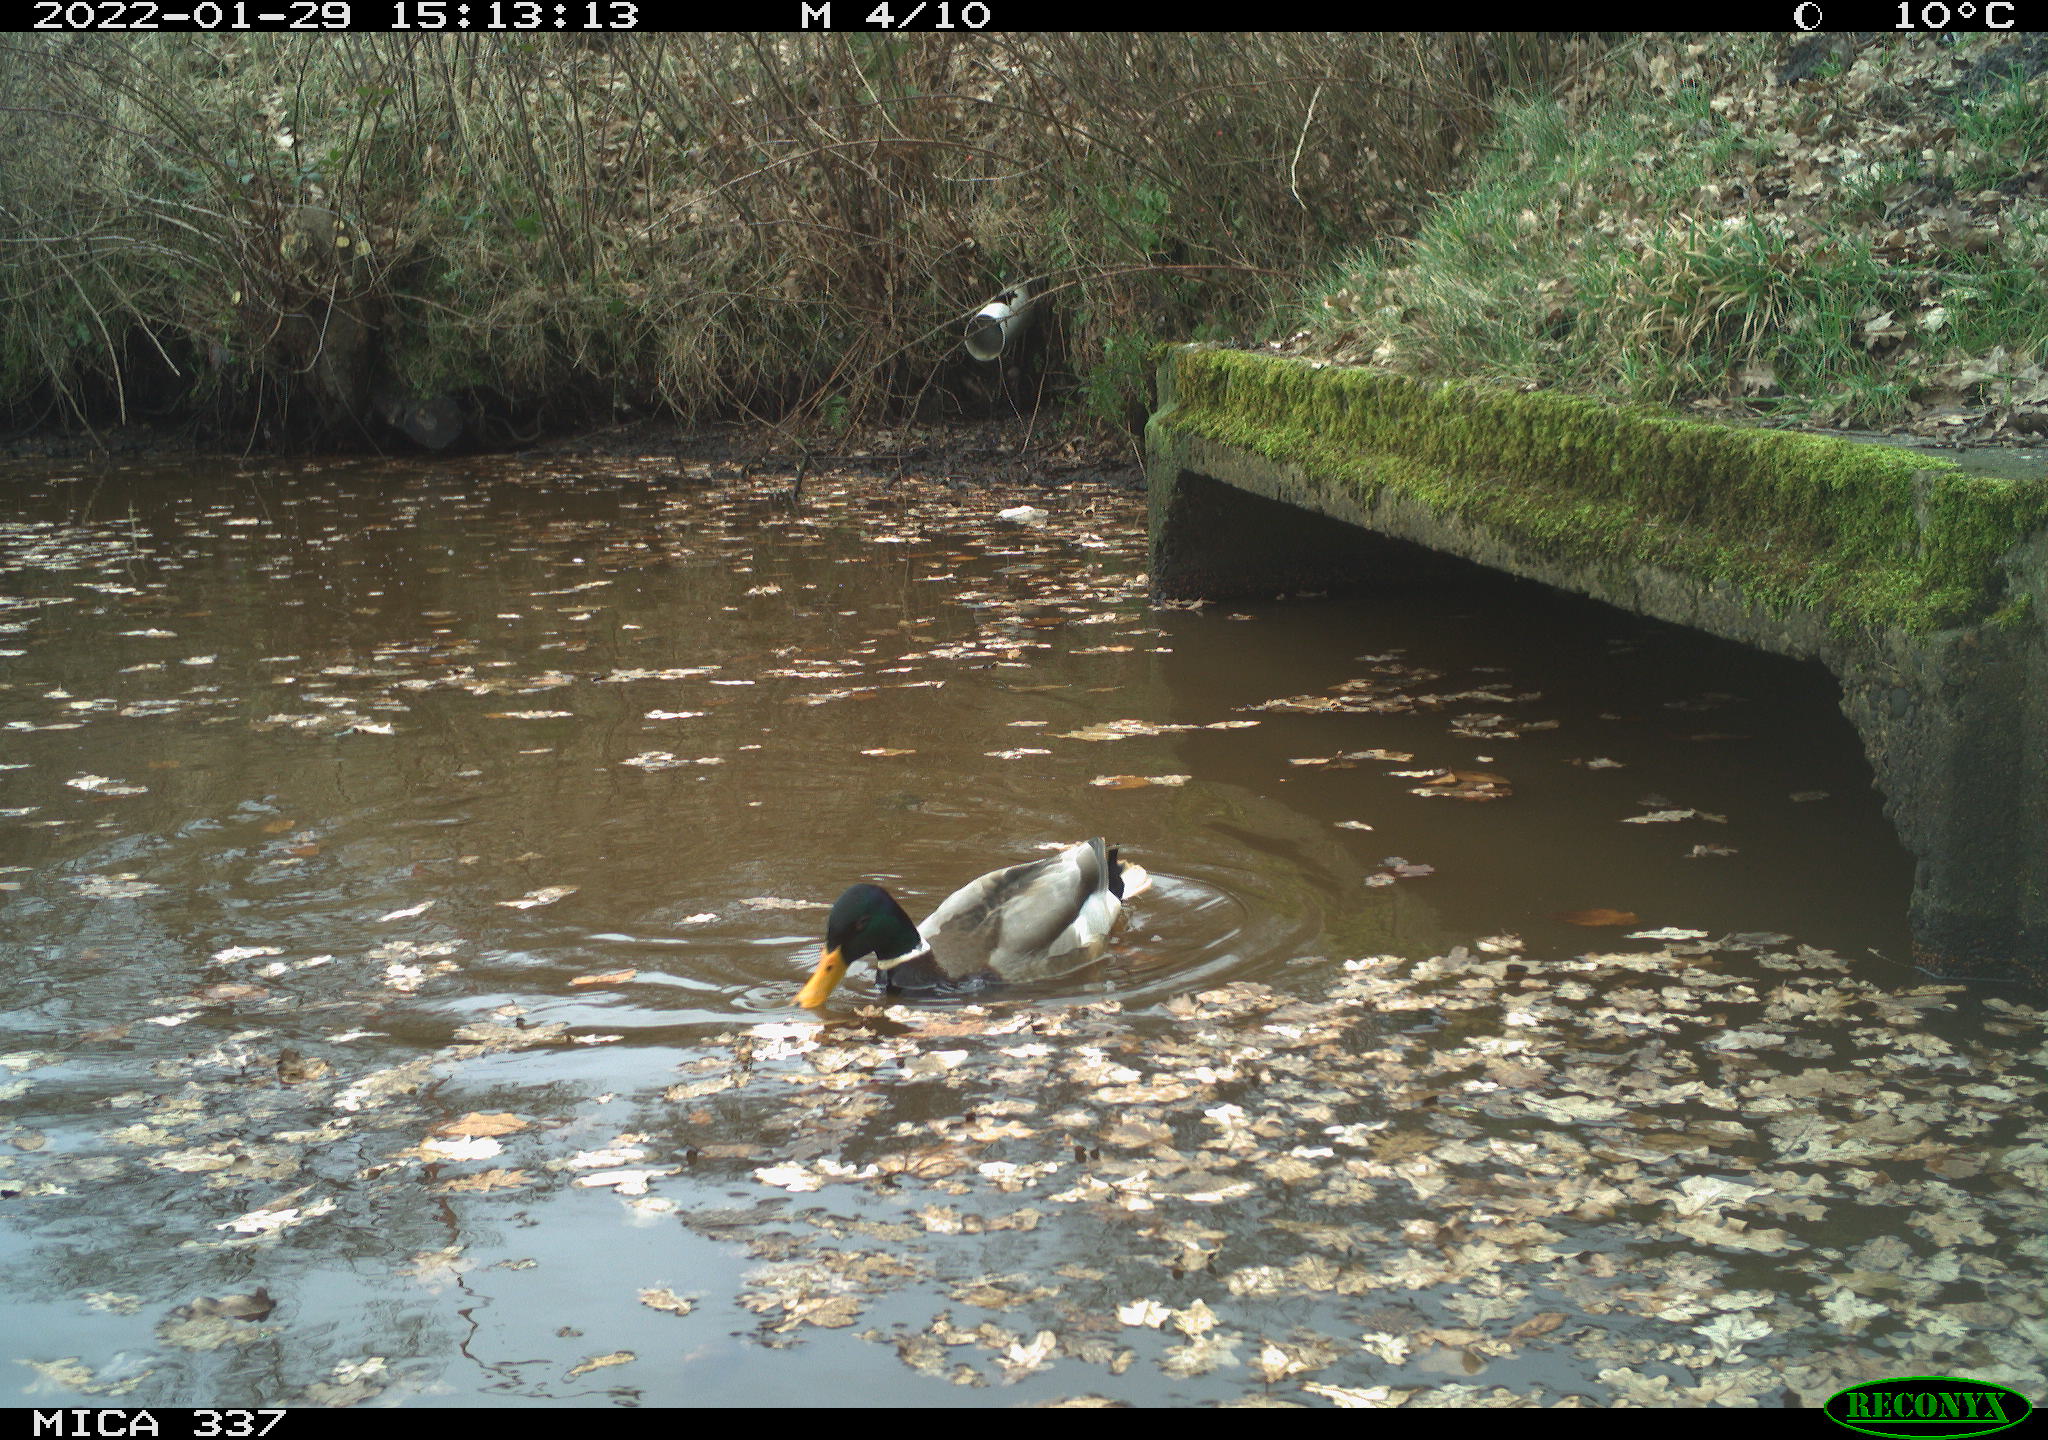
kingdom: Animalia
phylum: Chordata
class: Aves
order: Anseriformes
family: Anatidae
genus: Anas
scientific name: Anas platyrhynchos
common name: Mallard
